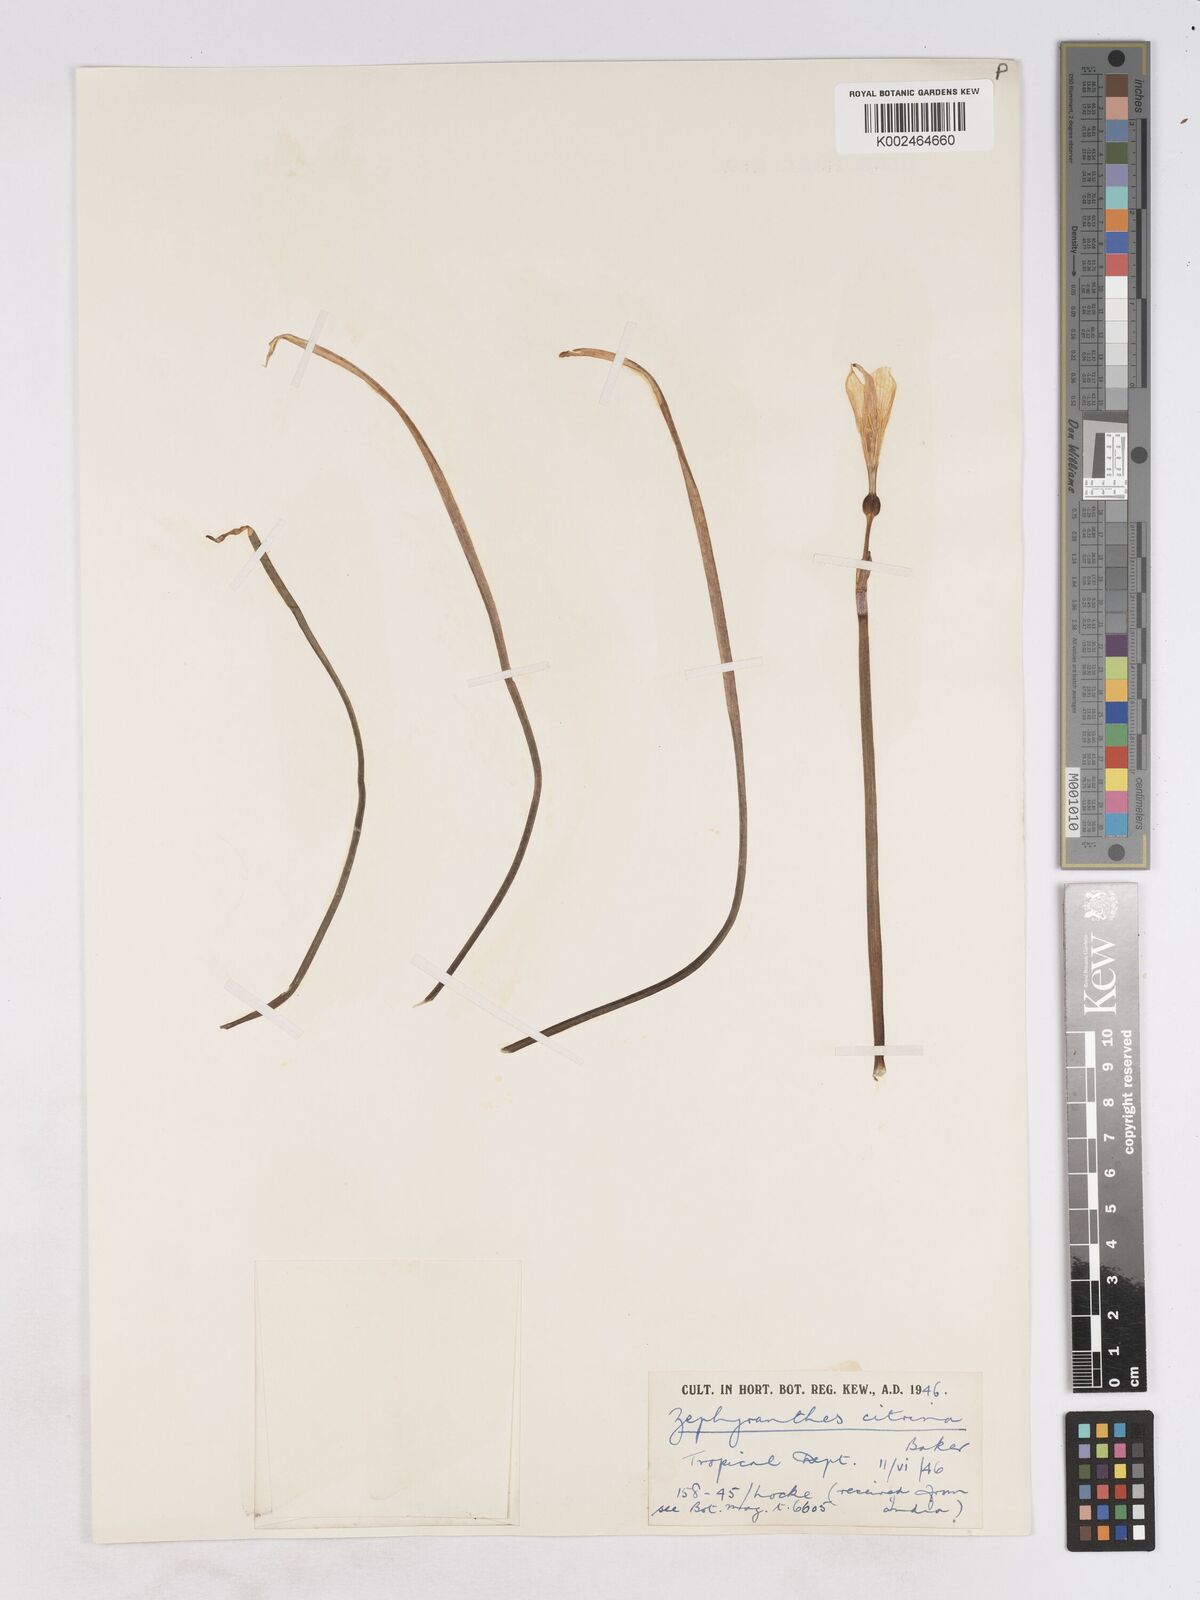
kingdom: Plantae
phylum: Tracheophyta
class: Liliopsida
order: Asparagales
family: Amaryllidaceae
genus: Zephyranthes
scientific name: Zephyranthes citrina
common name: Citron zephyrlily
